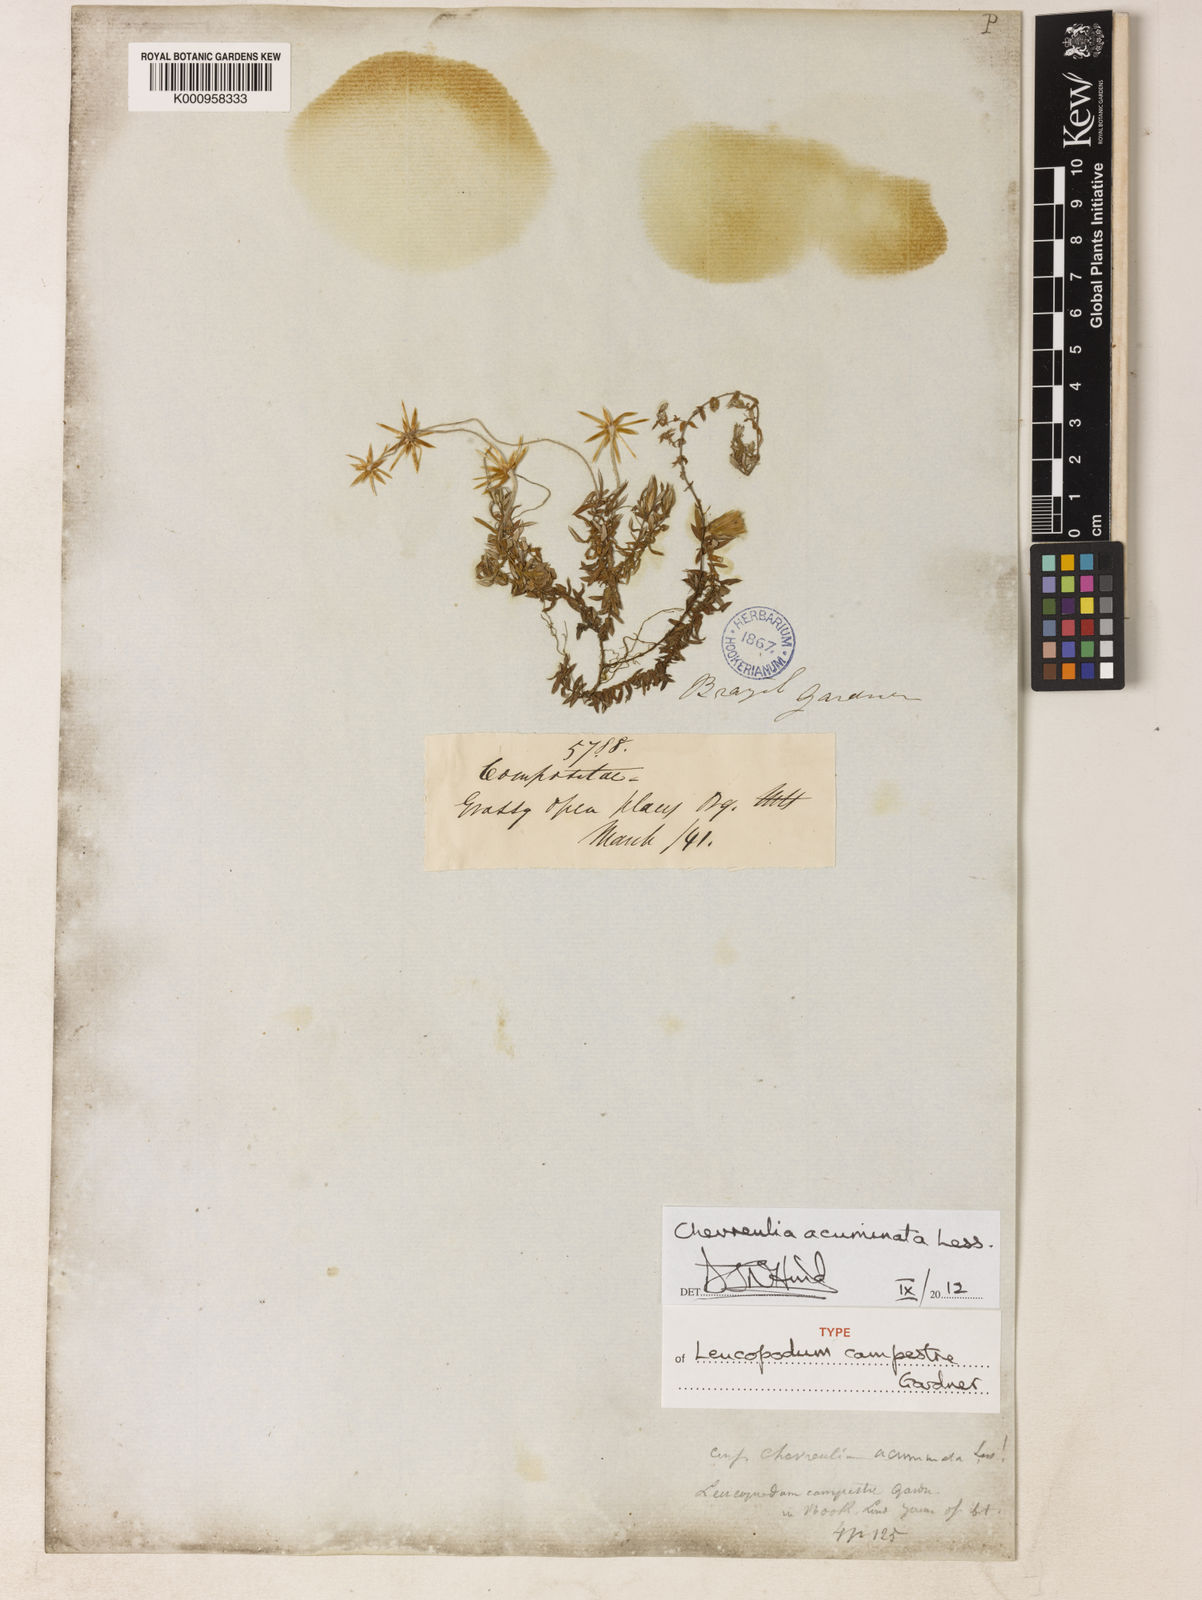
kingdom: Plantae
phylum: Tracheophyta
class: Magnoliopsida
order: Asterales
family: Asteraceae
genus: Chevreulia
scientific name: Chevreulia acuminata
